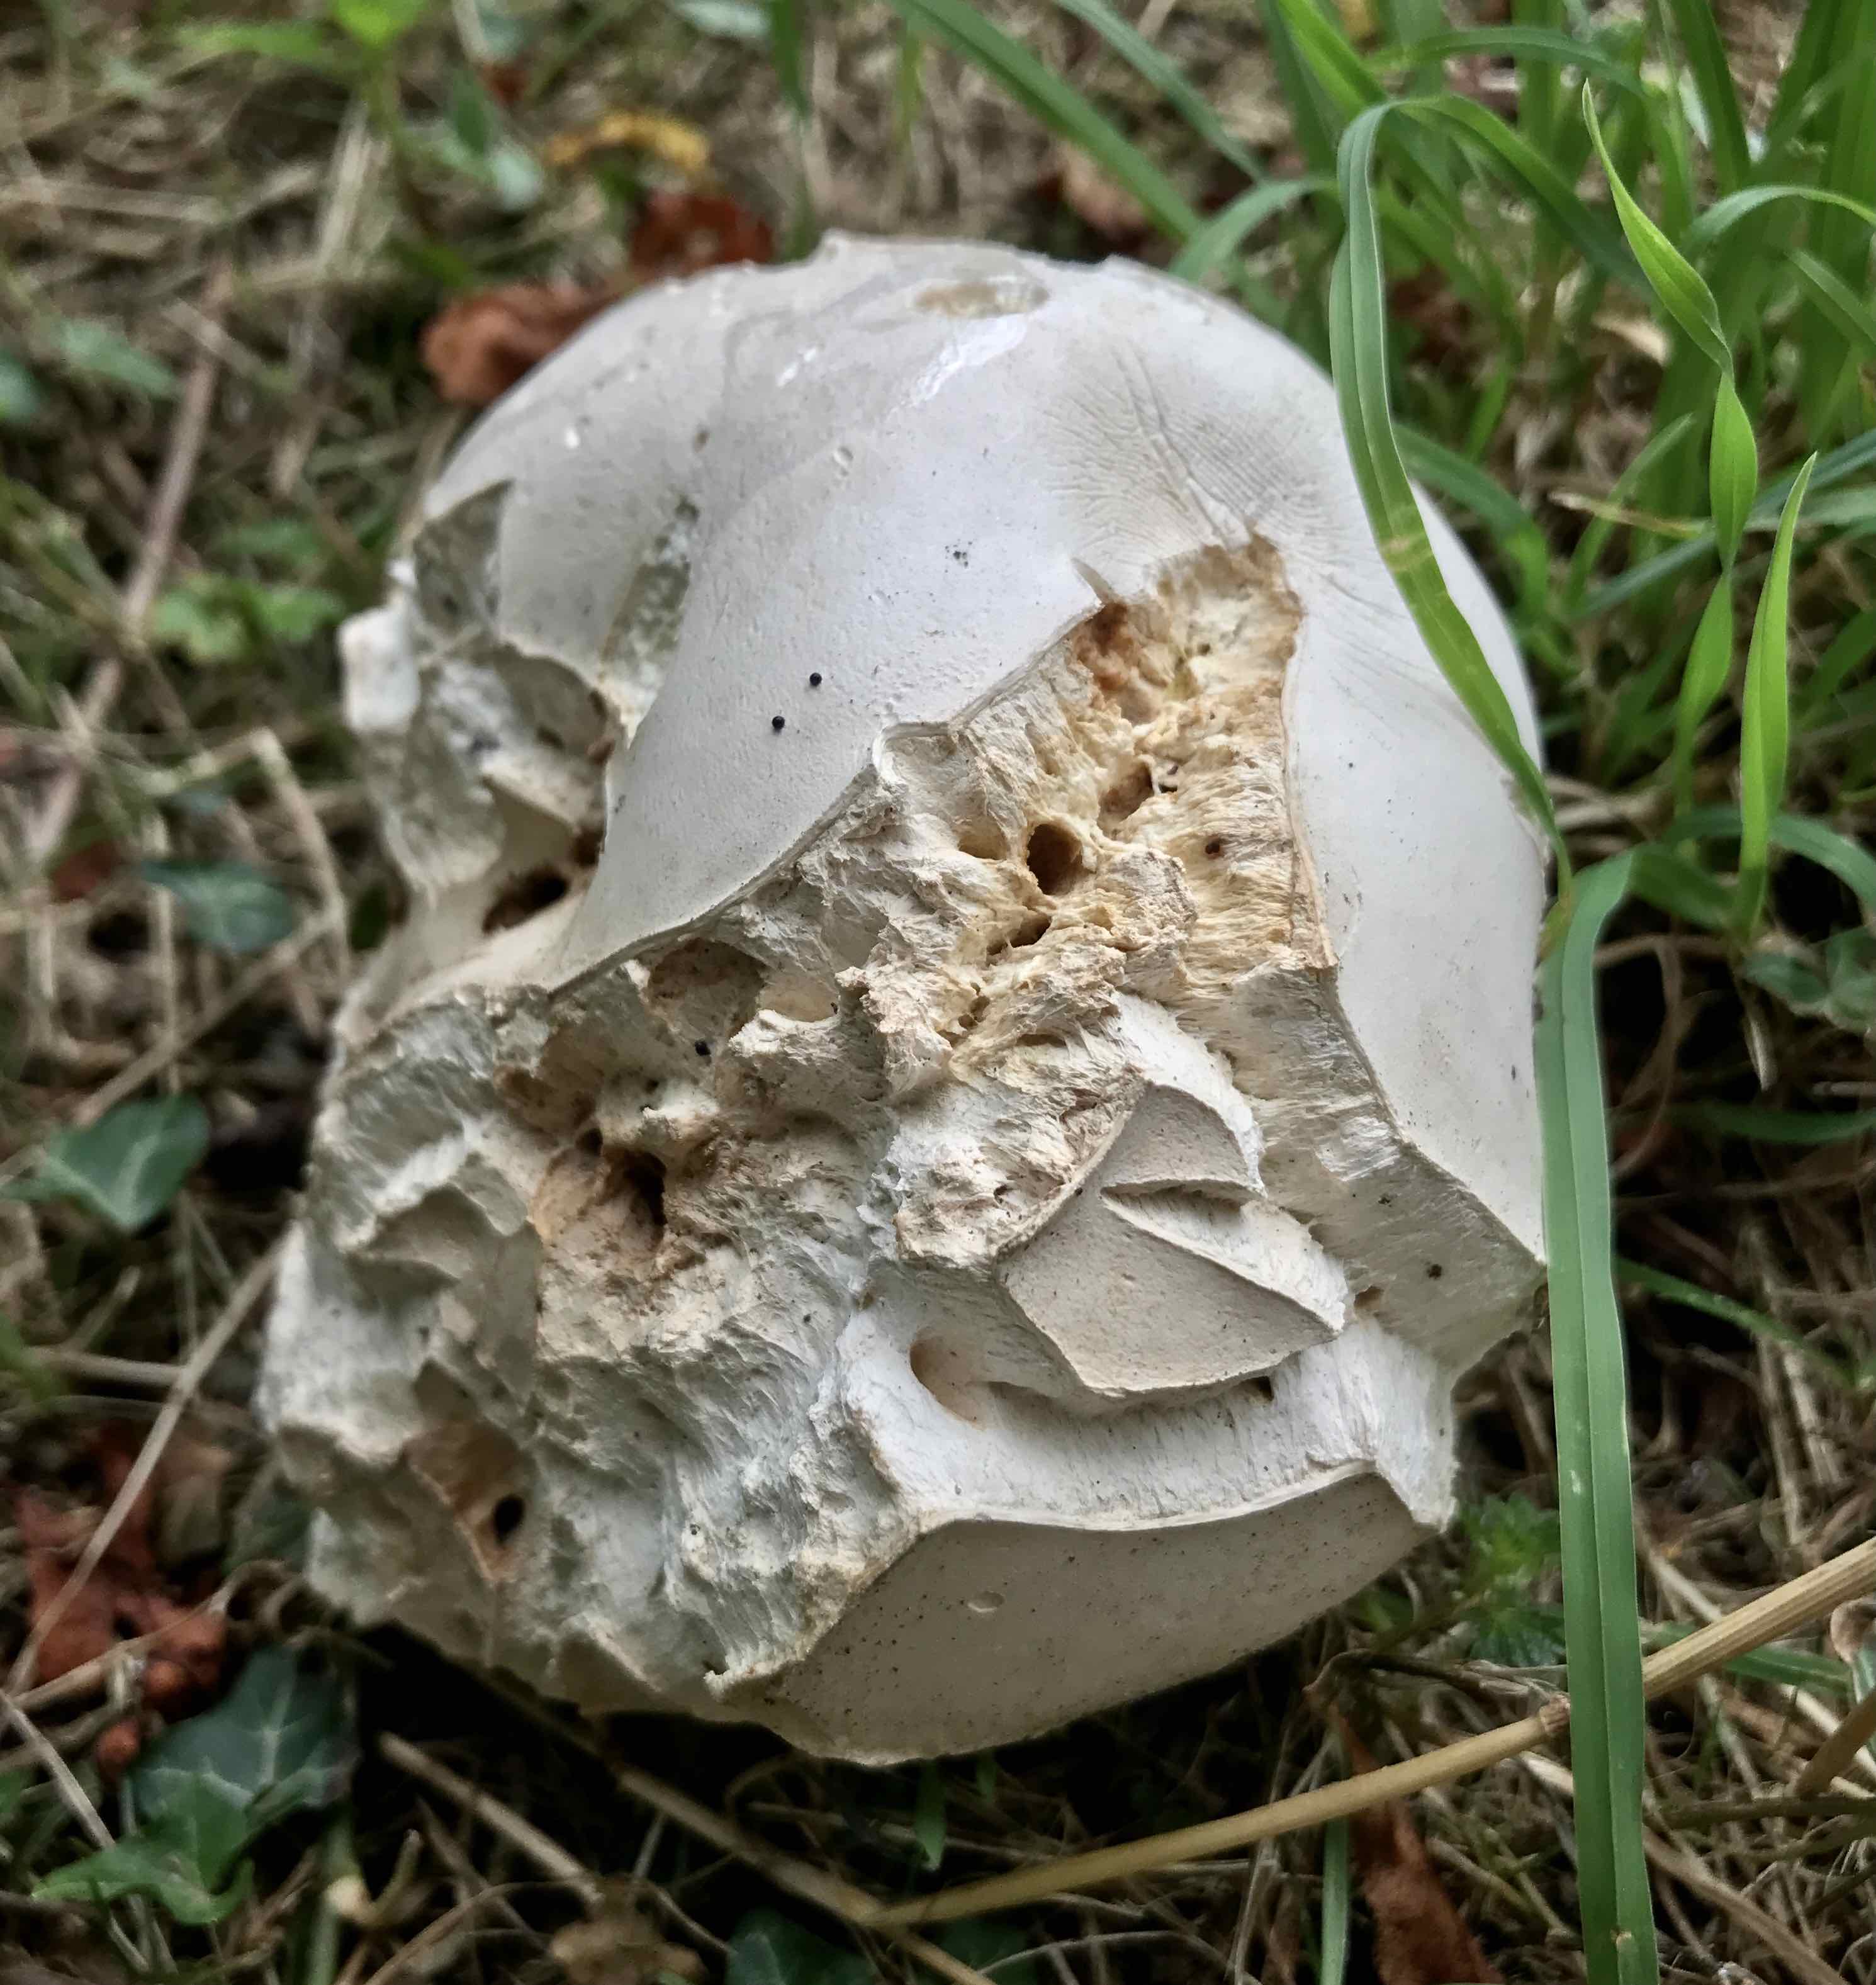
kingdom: Fungi
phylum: Basidiomycota
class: Agaricomycetes
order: Agaricales
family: Lycoperdaceae
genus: Calvatia
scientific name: Calvatia gigantea
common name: kæmpestøvbold
